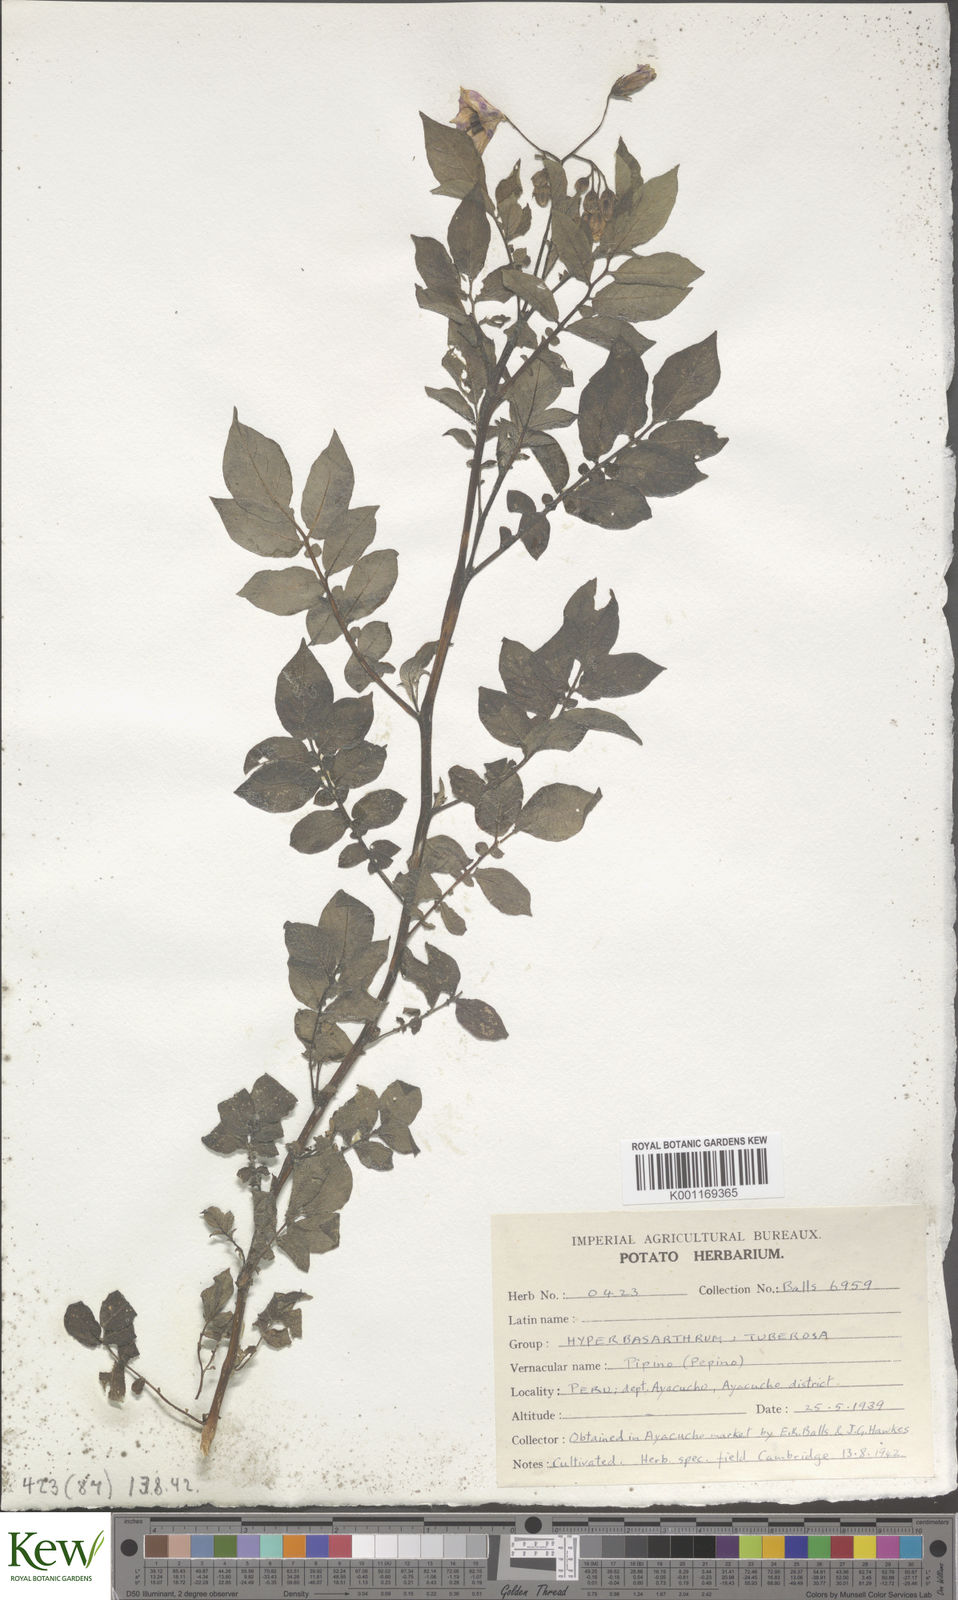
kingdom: Plantae
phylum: Tracheophyta
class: Magnoliopsida
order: Solanales
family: Solanaceae
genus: Solanum
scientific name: Solanum chaucha
